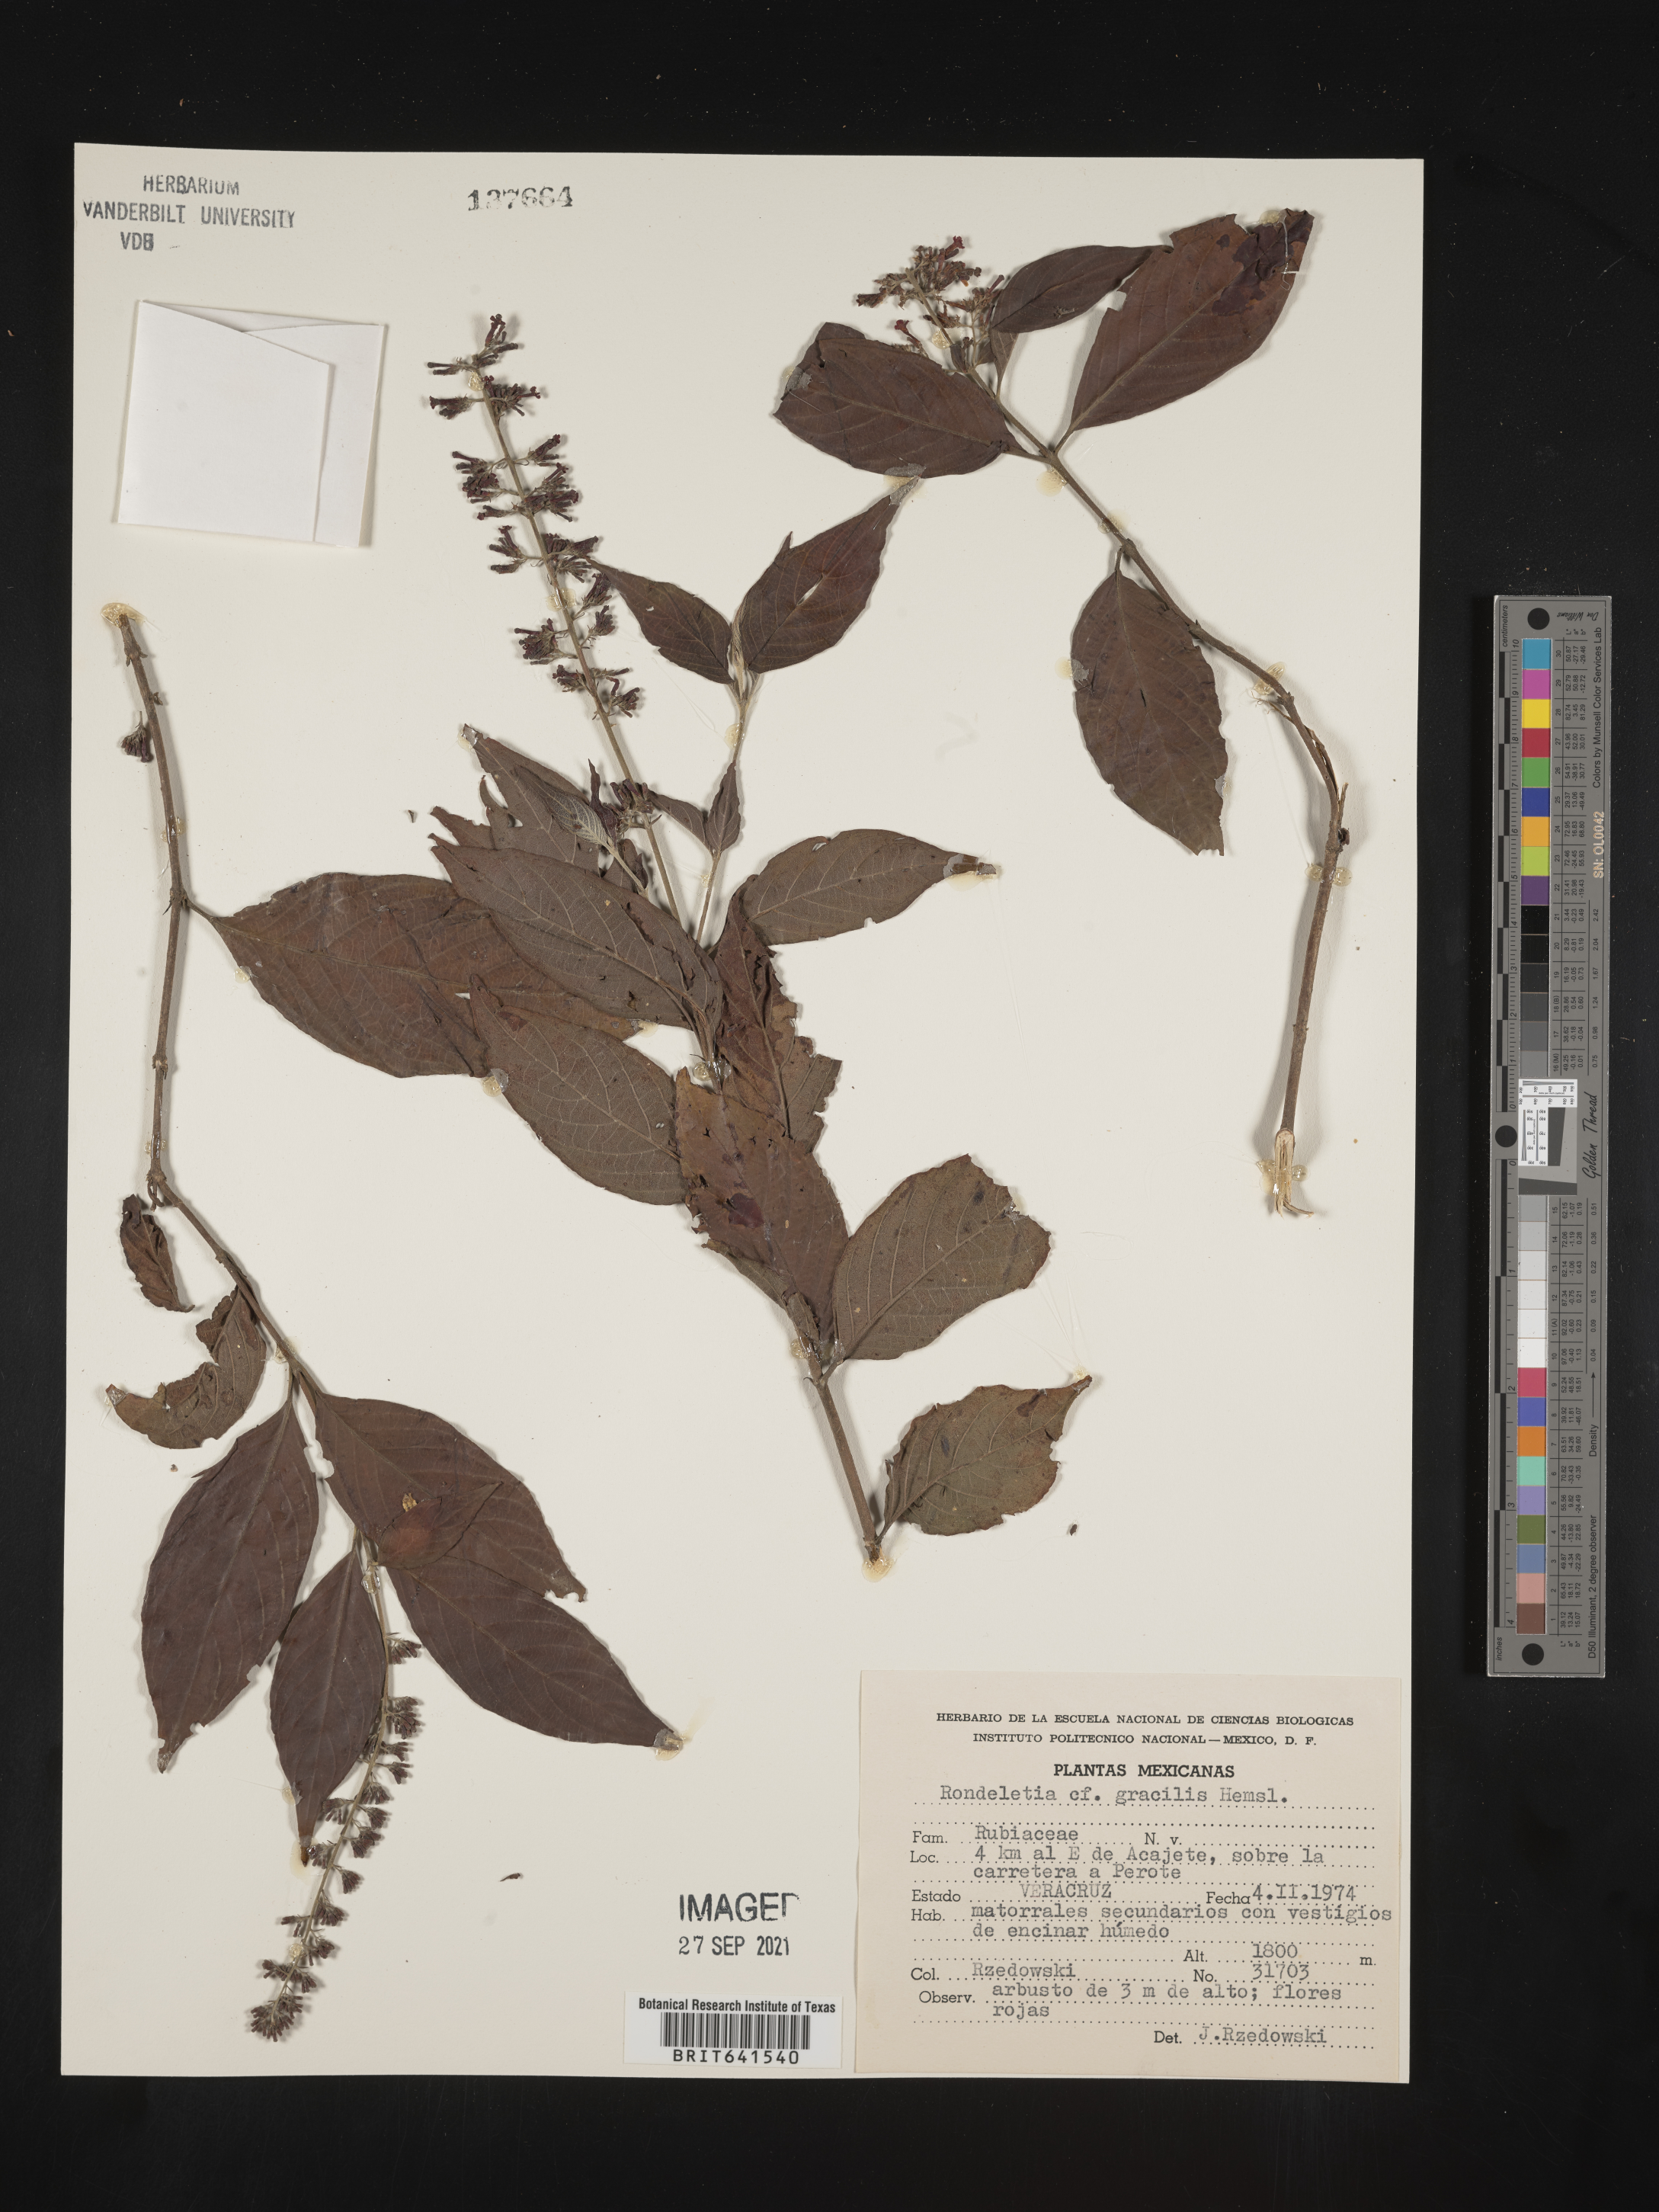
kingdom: Plantae
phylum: Tracheophyta
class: Magnoliopsida
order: Gentianales
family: Rubiaceae
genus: Rondeletia
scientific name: Rondeletia
